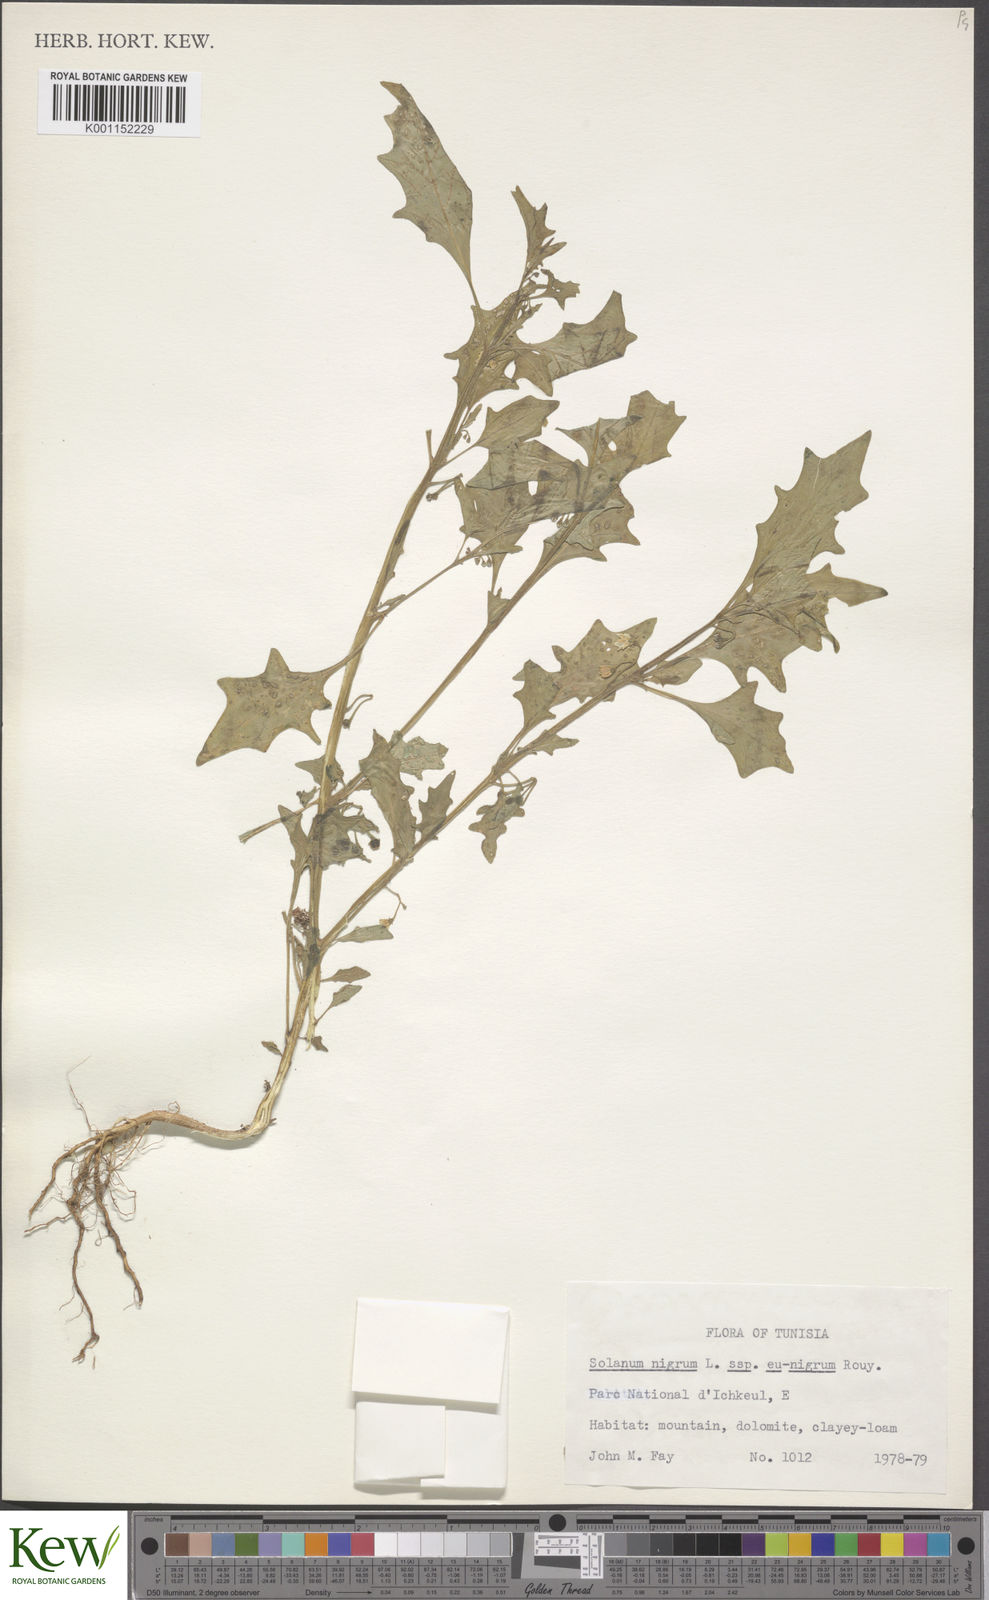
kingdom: Plantae
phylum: Tracheophyta
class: Magnoliopsida
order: Solanales
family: Solanaceae
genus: Solanum
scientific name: Solanum nigrum
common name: Black nightshade
